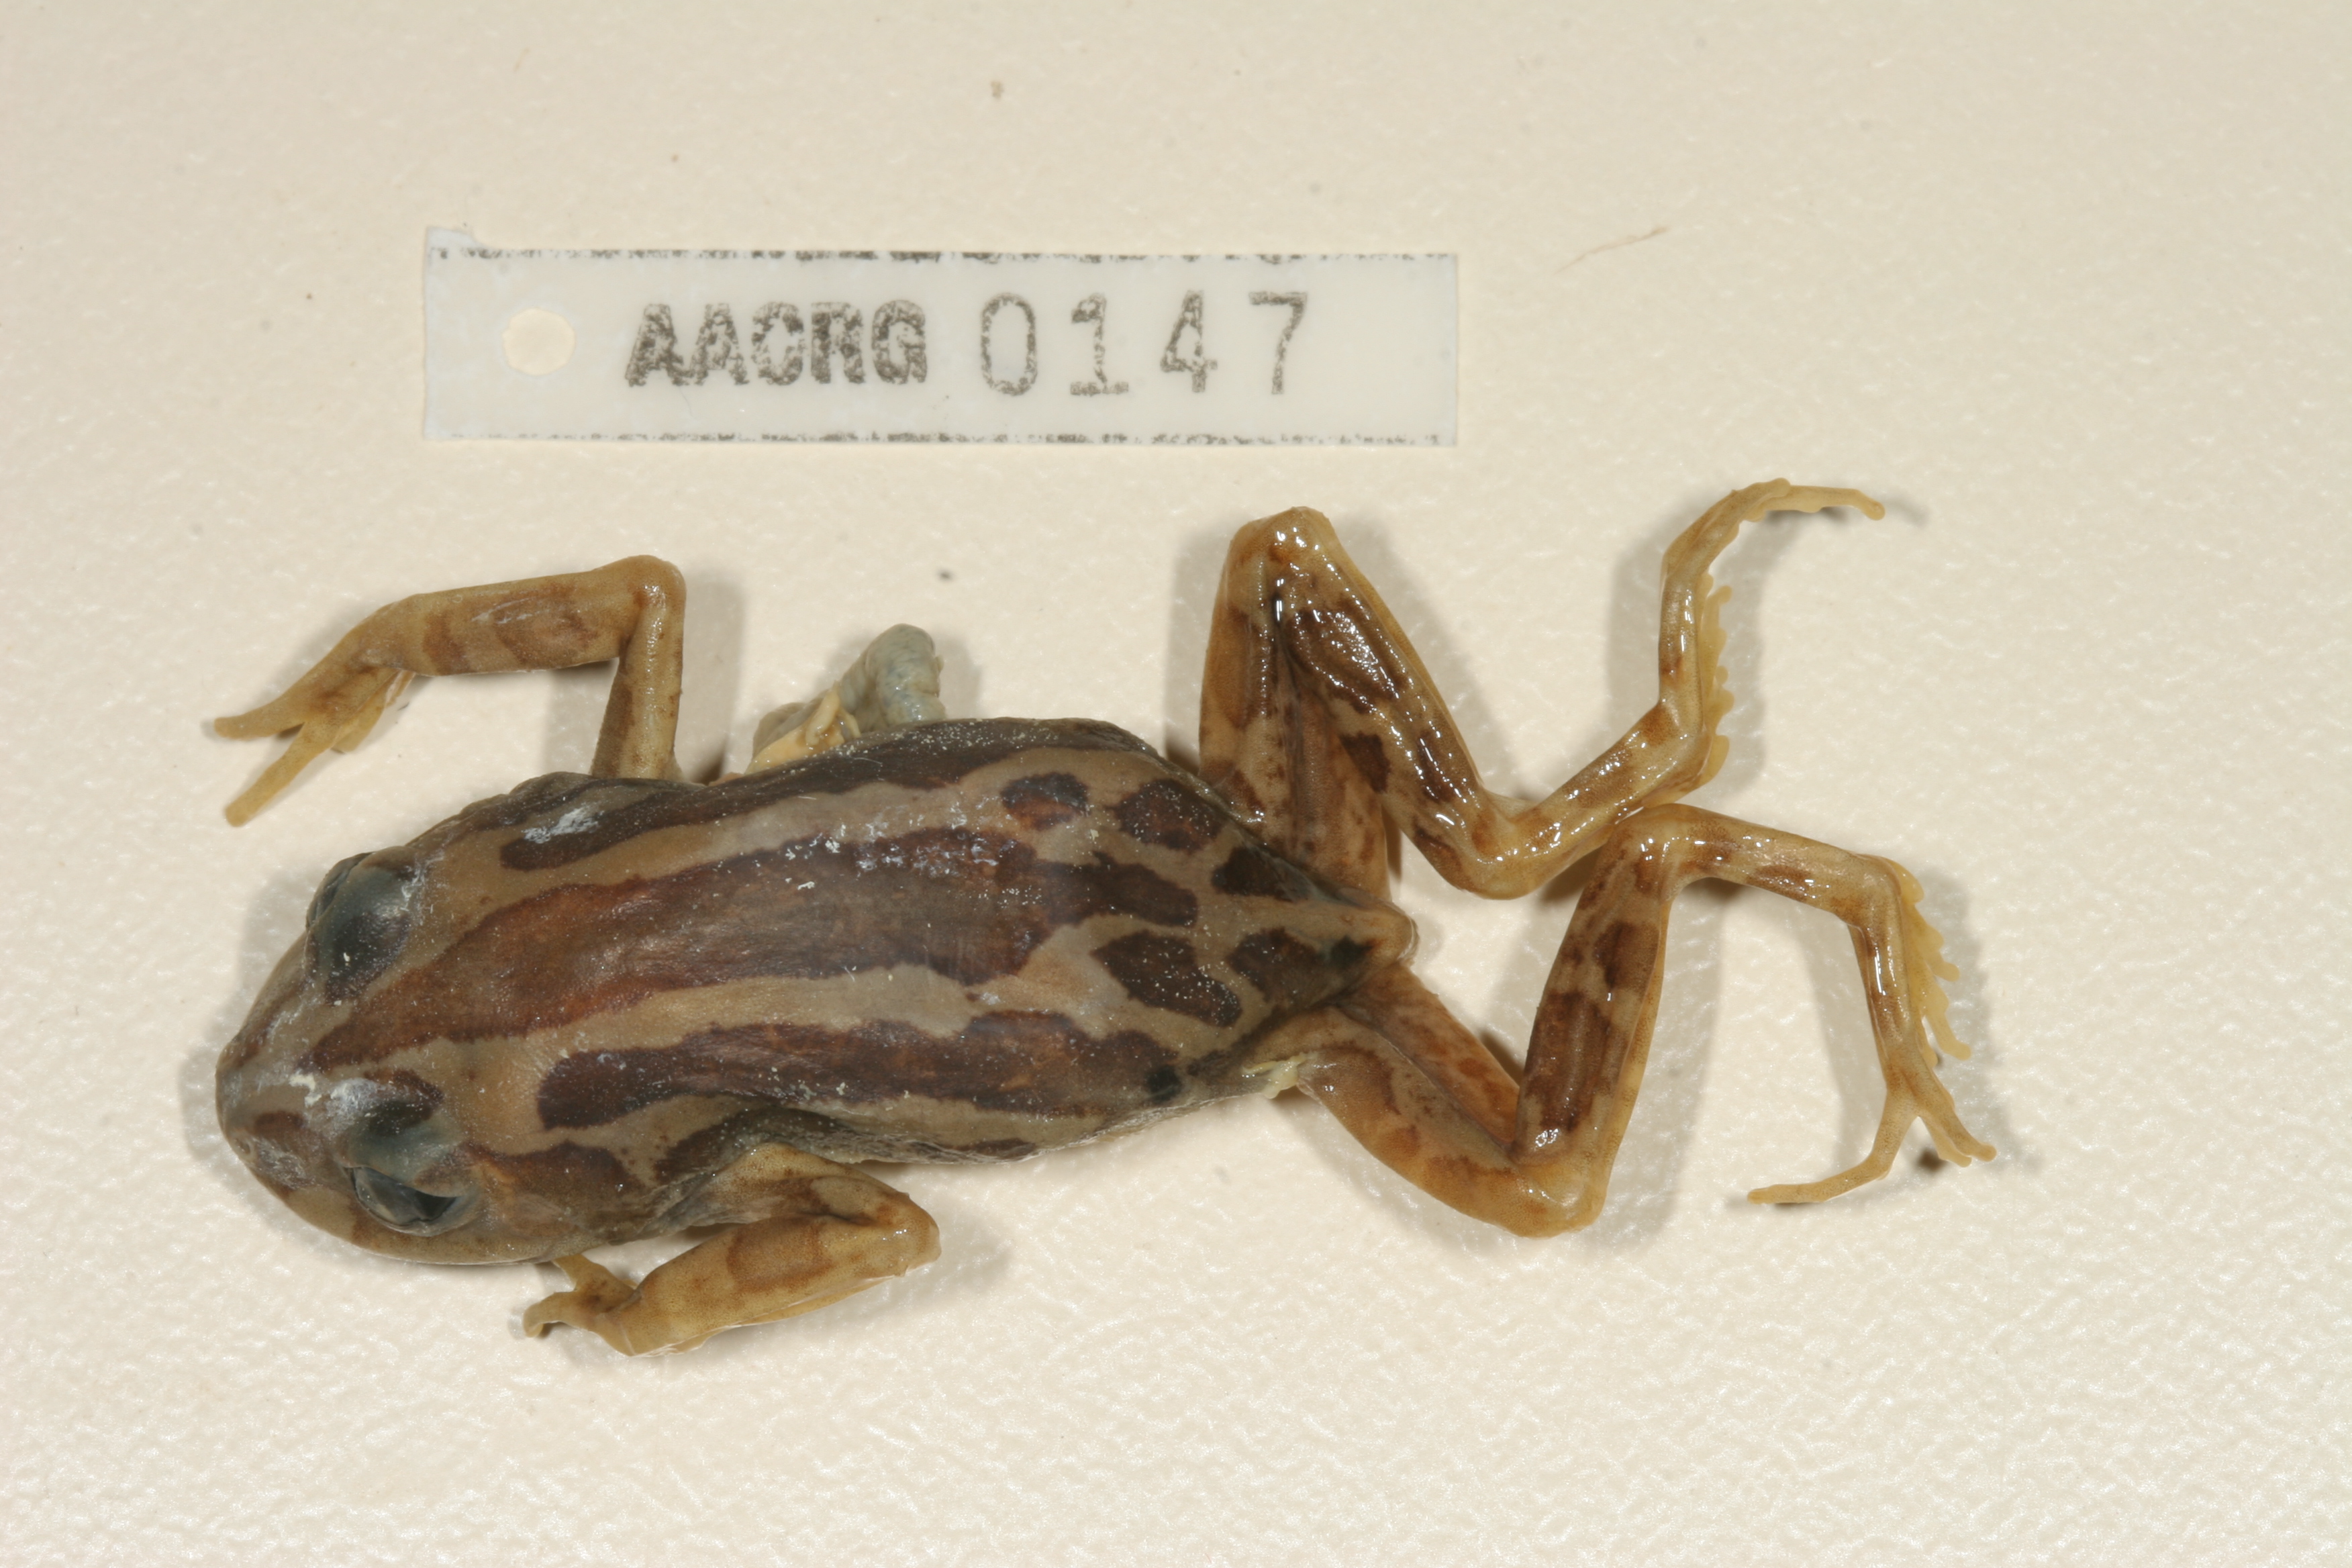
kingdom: Animalia
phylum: Chordata
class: Amphibia
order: Anura
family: Hyperoliidae
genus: Kassina
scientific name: Kassina senegalensis
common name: Senegal land frog
